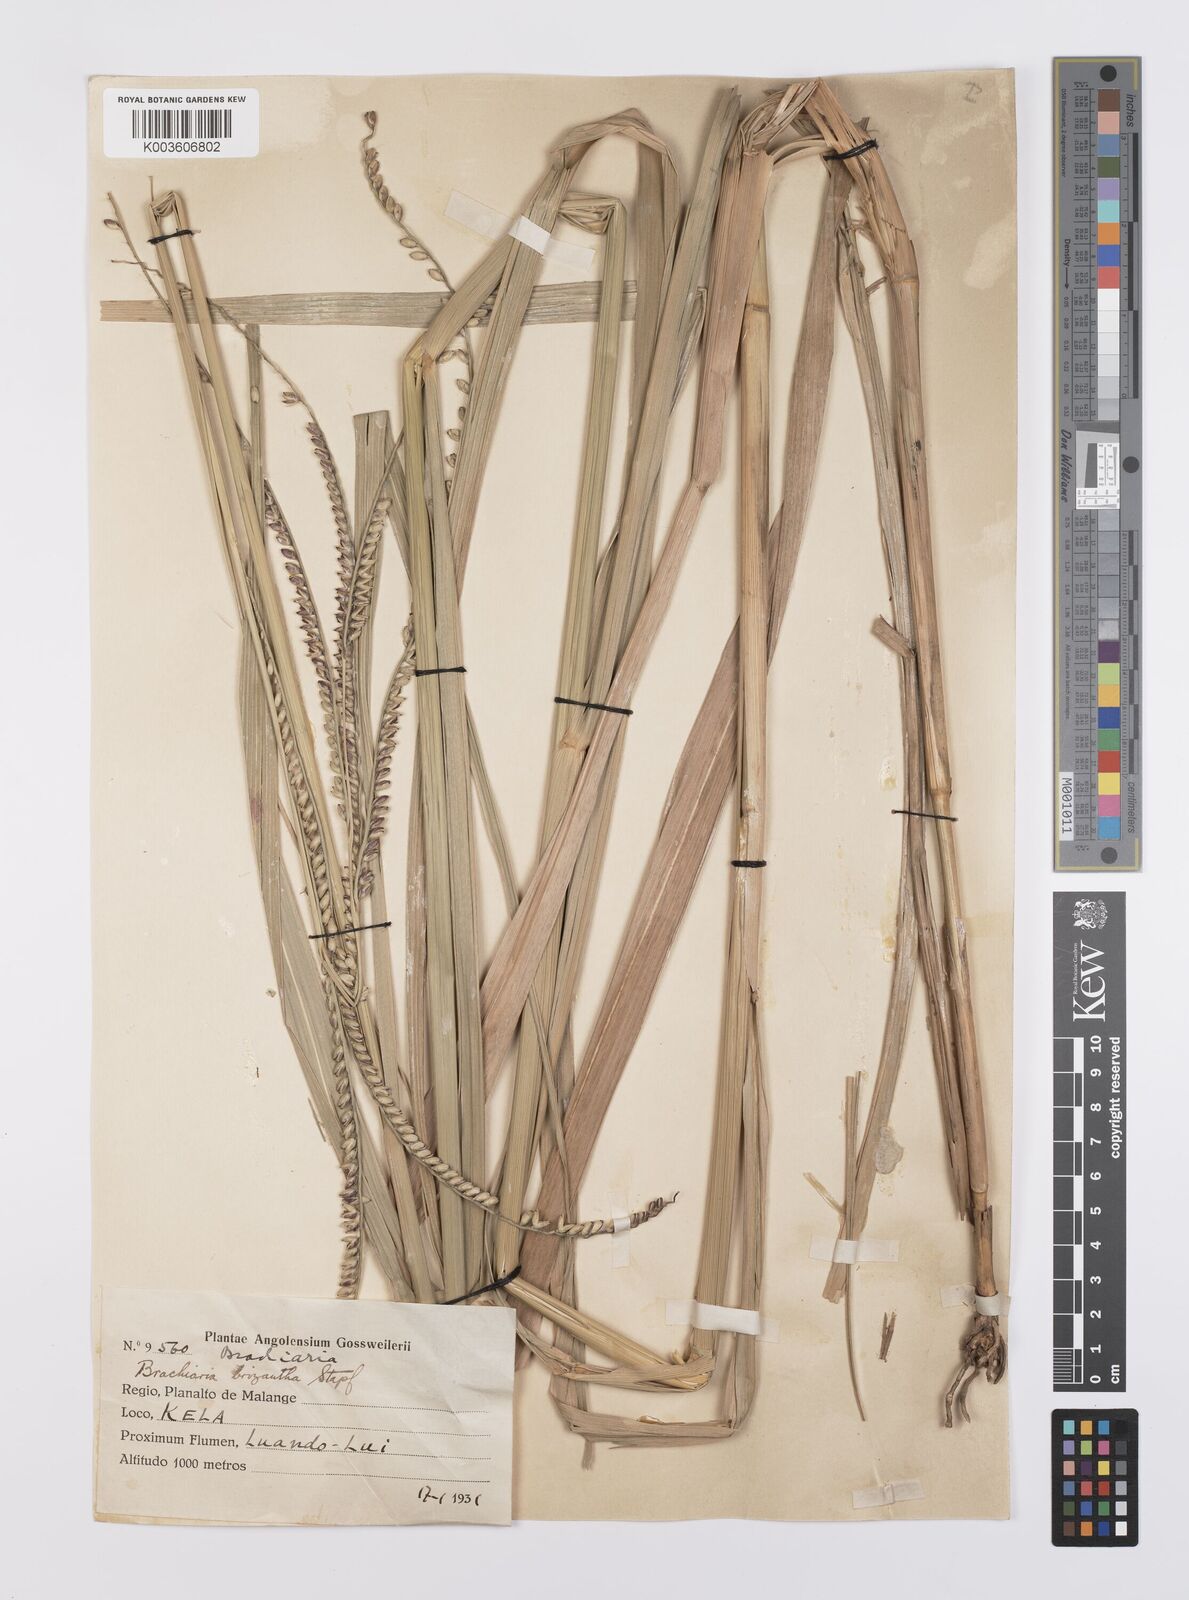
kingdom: Plantae
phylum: Tracheophyta
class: Liliopsida
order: Poales
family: Poaceae
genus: Urochloa
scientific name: Urochloa brizantha
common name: Palisade signalgrass
